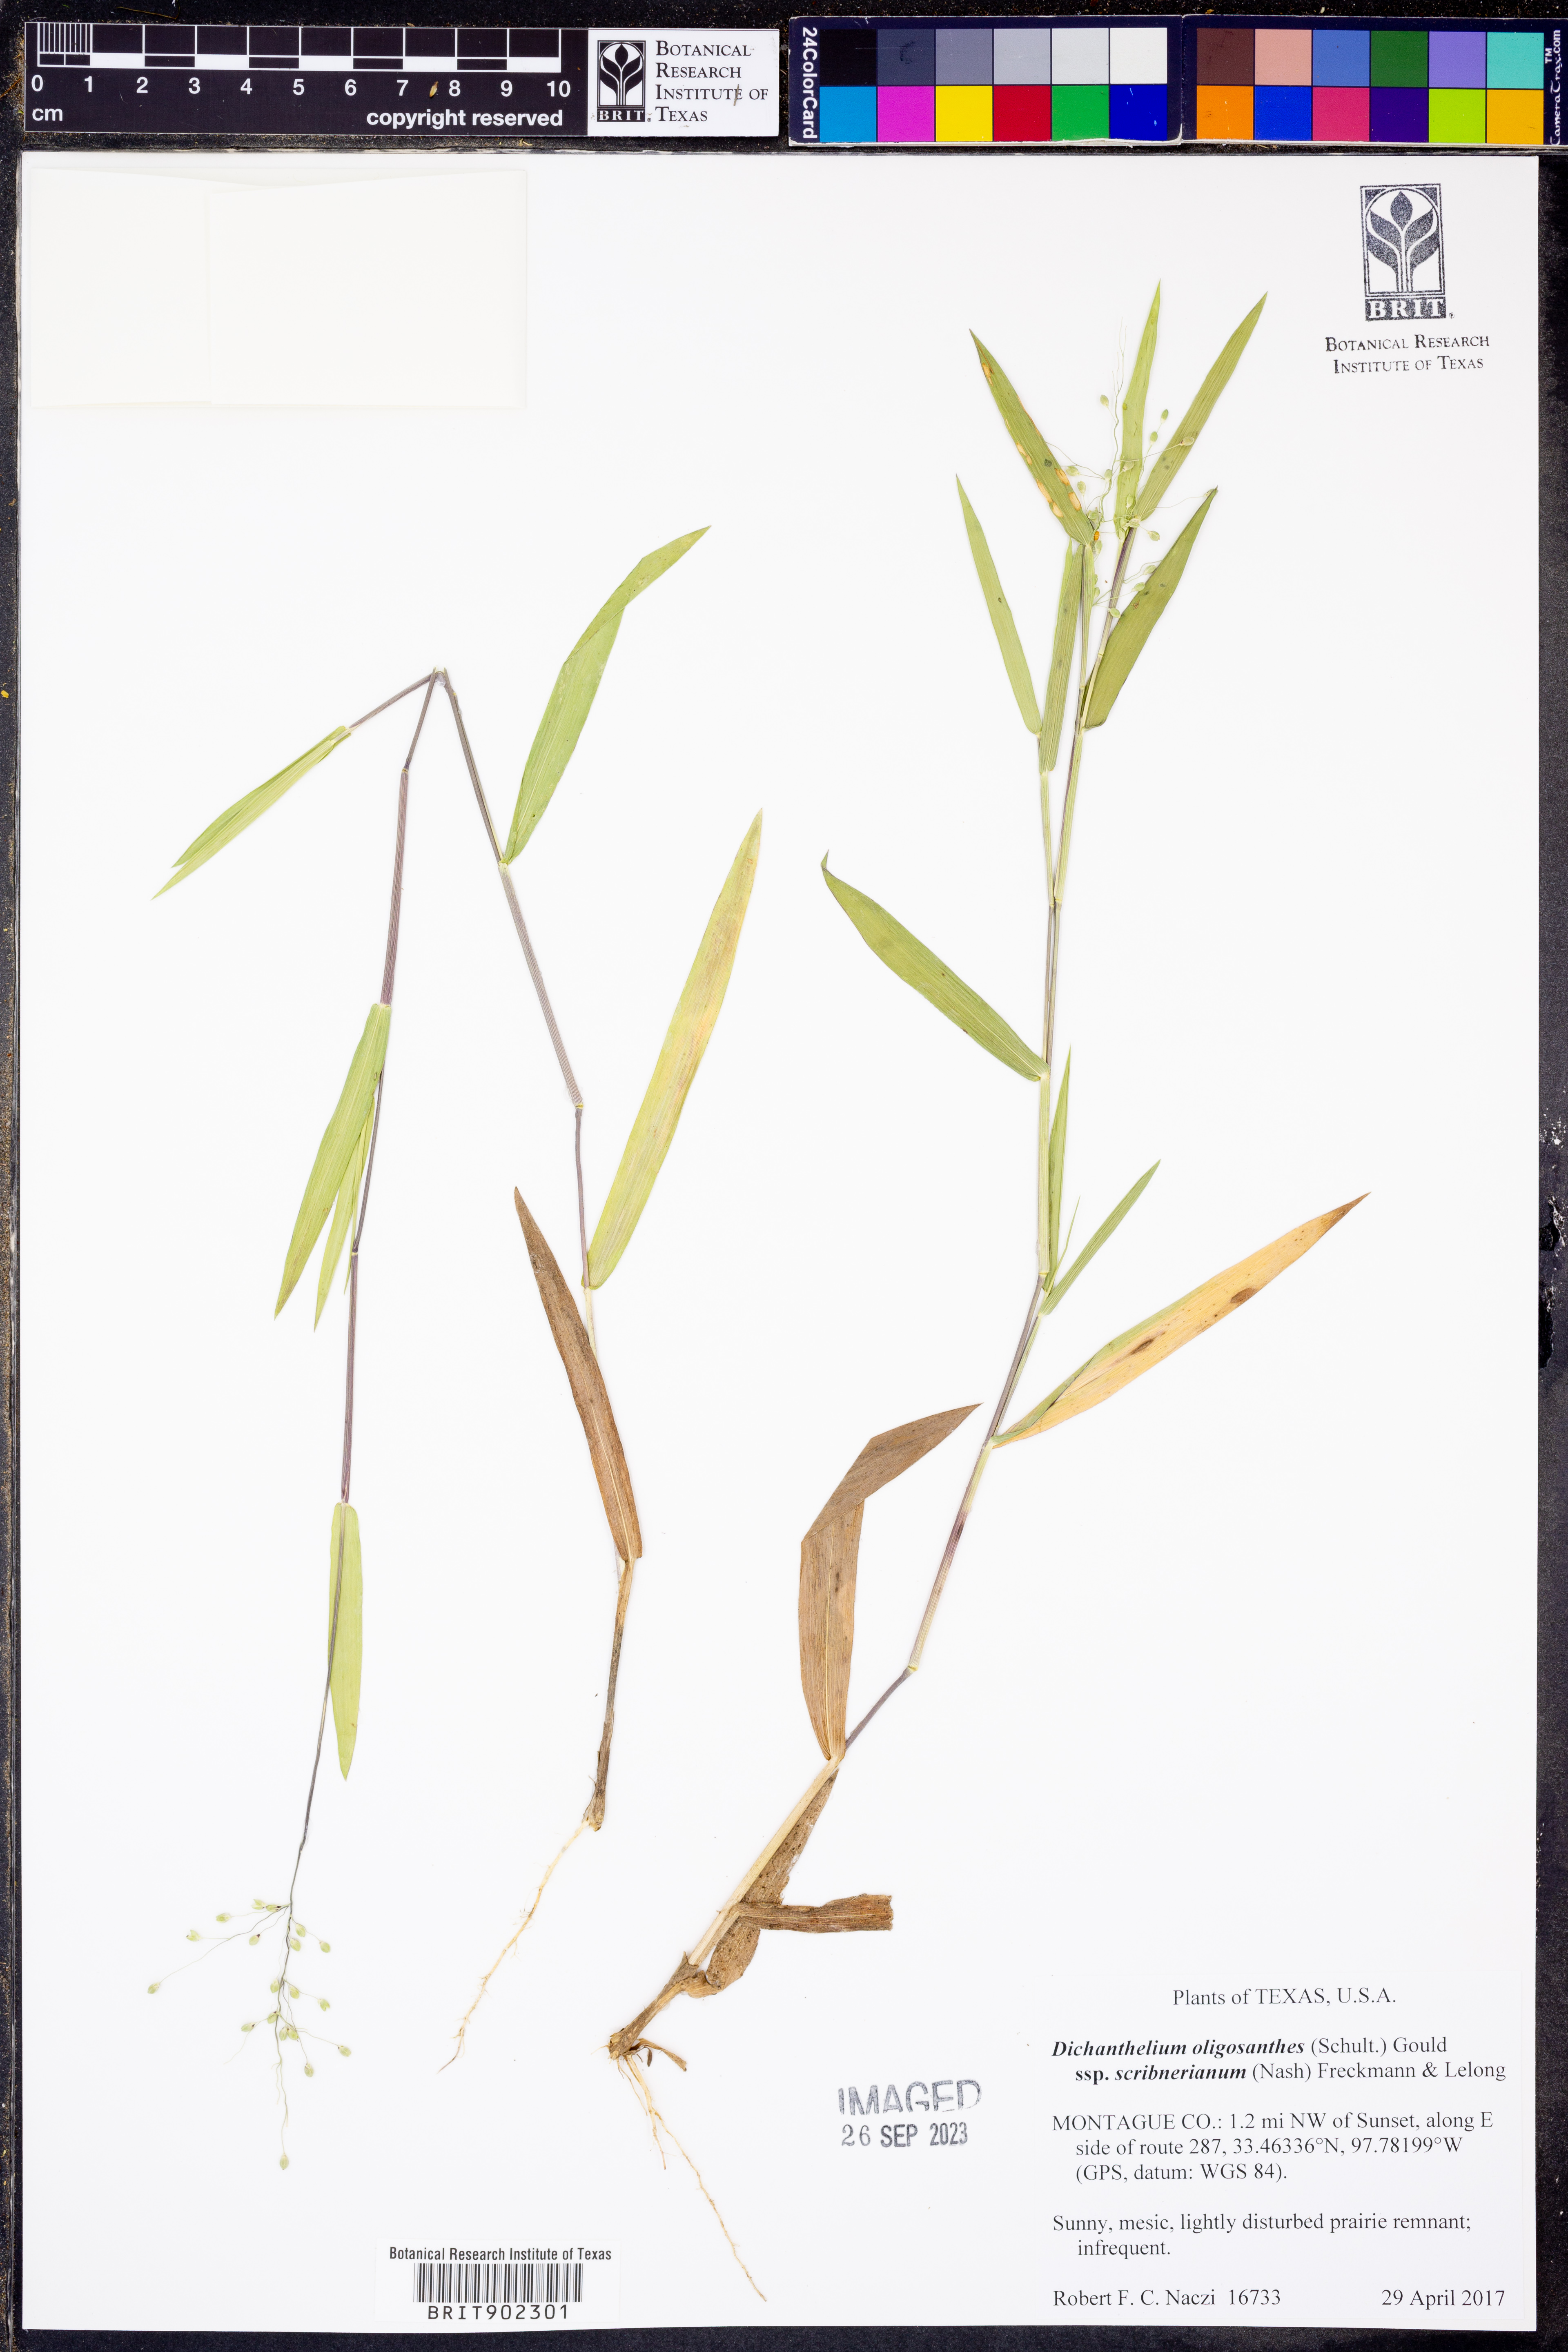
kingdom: Plantae
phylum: Tracheophyta
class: Liliopsida
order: Poales
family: Poaceae
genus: Dichanthelium
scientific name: Dichanthelium scribnerianum
